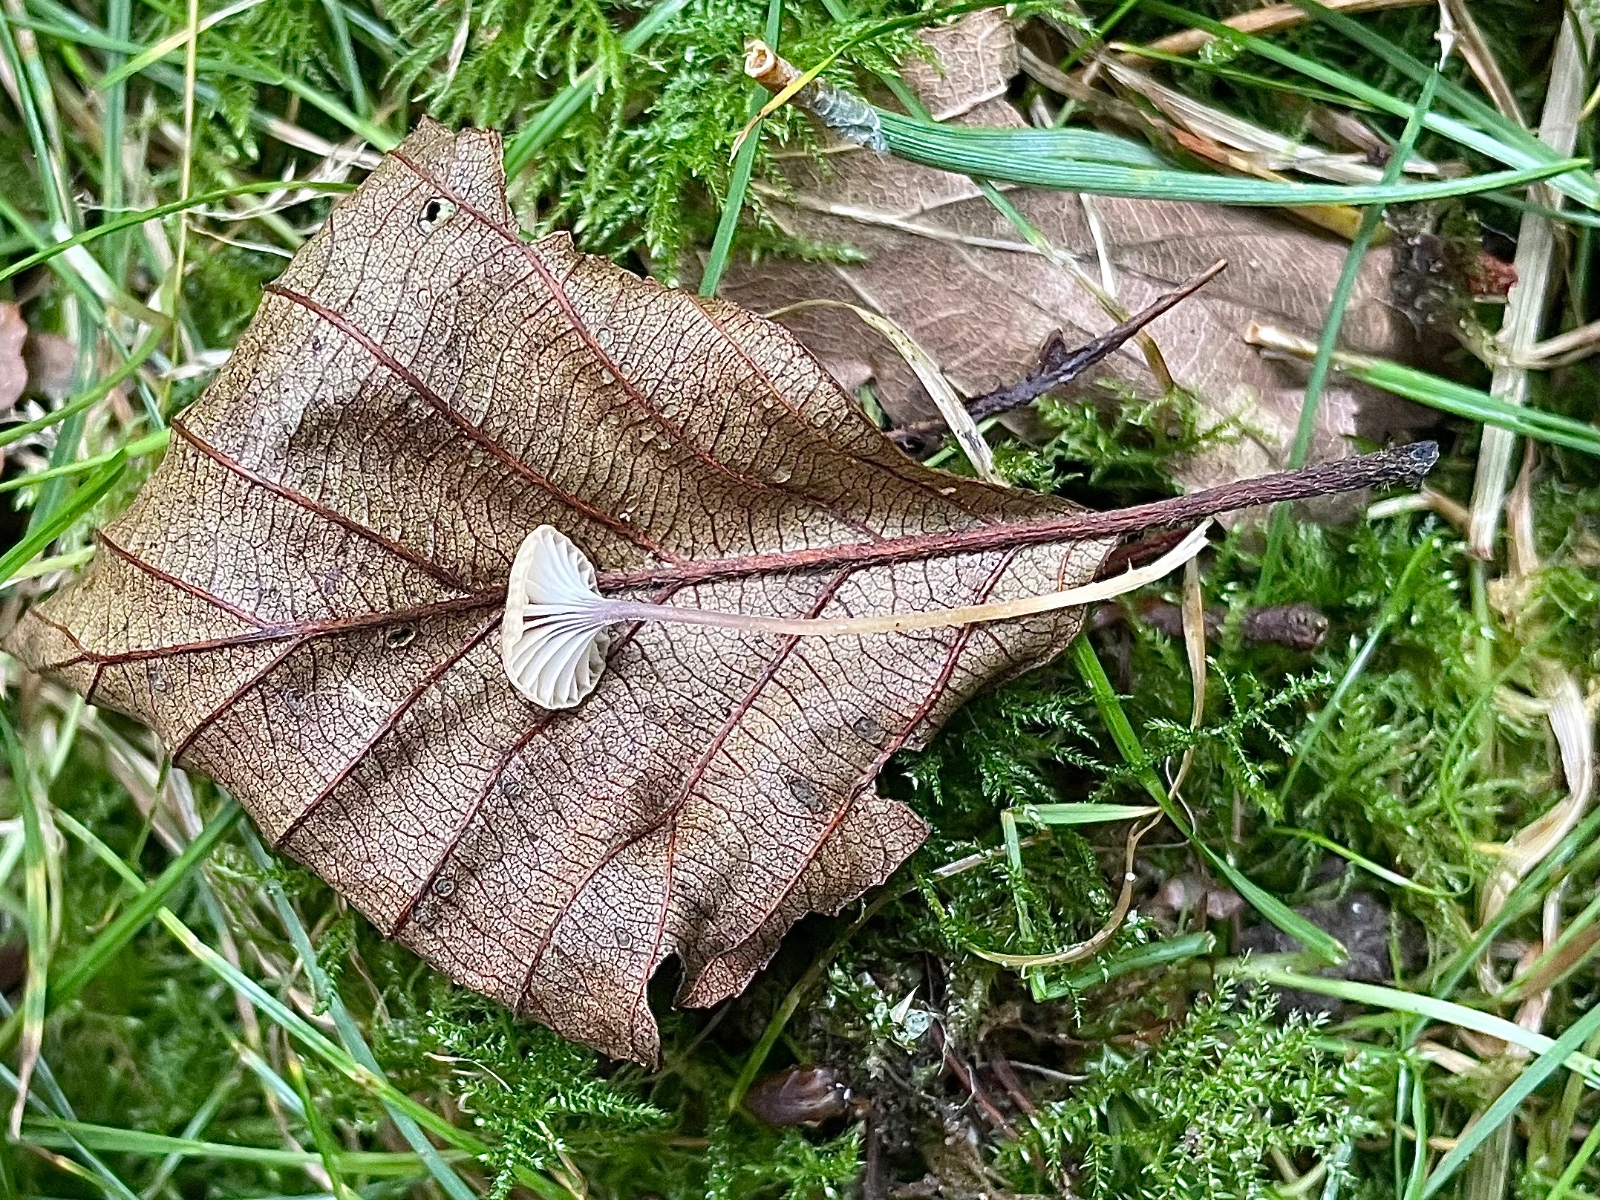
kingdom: Fungi
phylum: Basidiomycota
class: Agaricomycetes
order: Hymenochaetales
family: Rickenellaceae
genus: Rickenella
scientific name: Rickenella swartzii
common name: finstokket mosnavlehat
